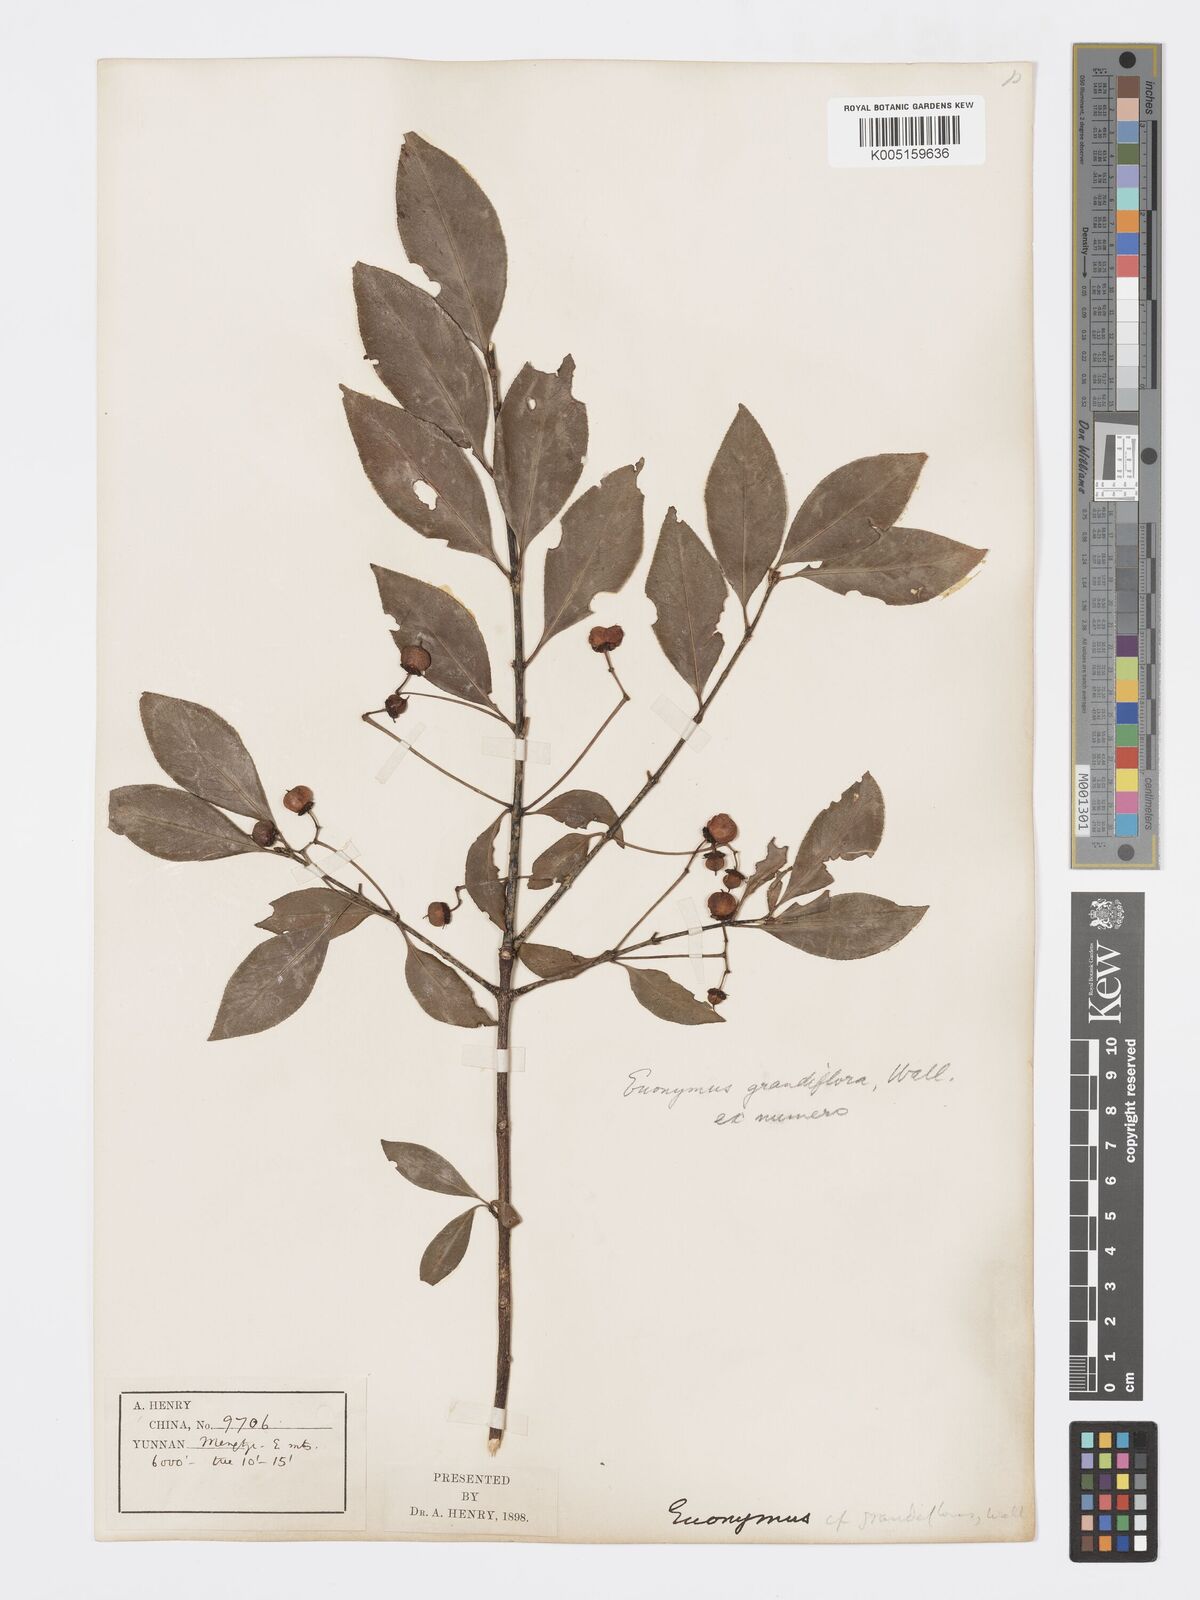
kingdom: Plantae
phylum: Tracheophyta
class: Magnoliopsida
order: Celastrales
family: Celastraceae
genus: Euonymus
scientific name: Euonymus grandiflorus
